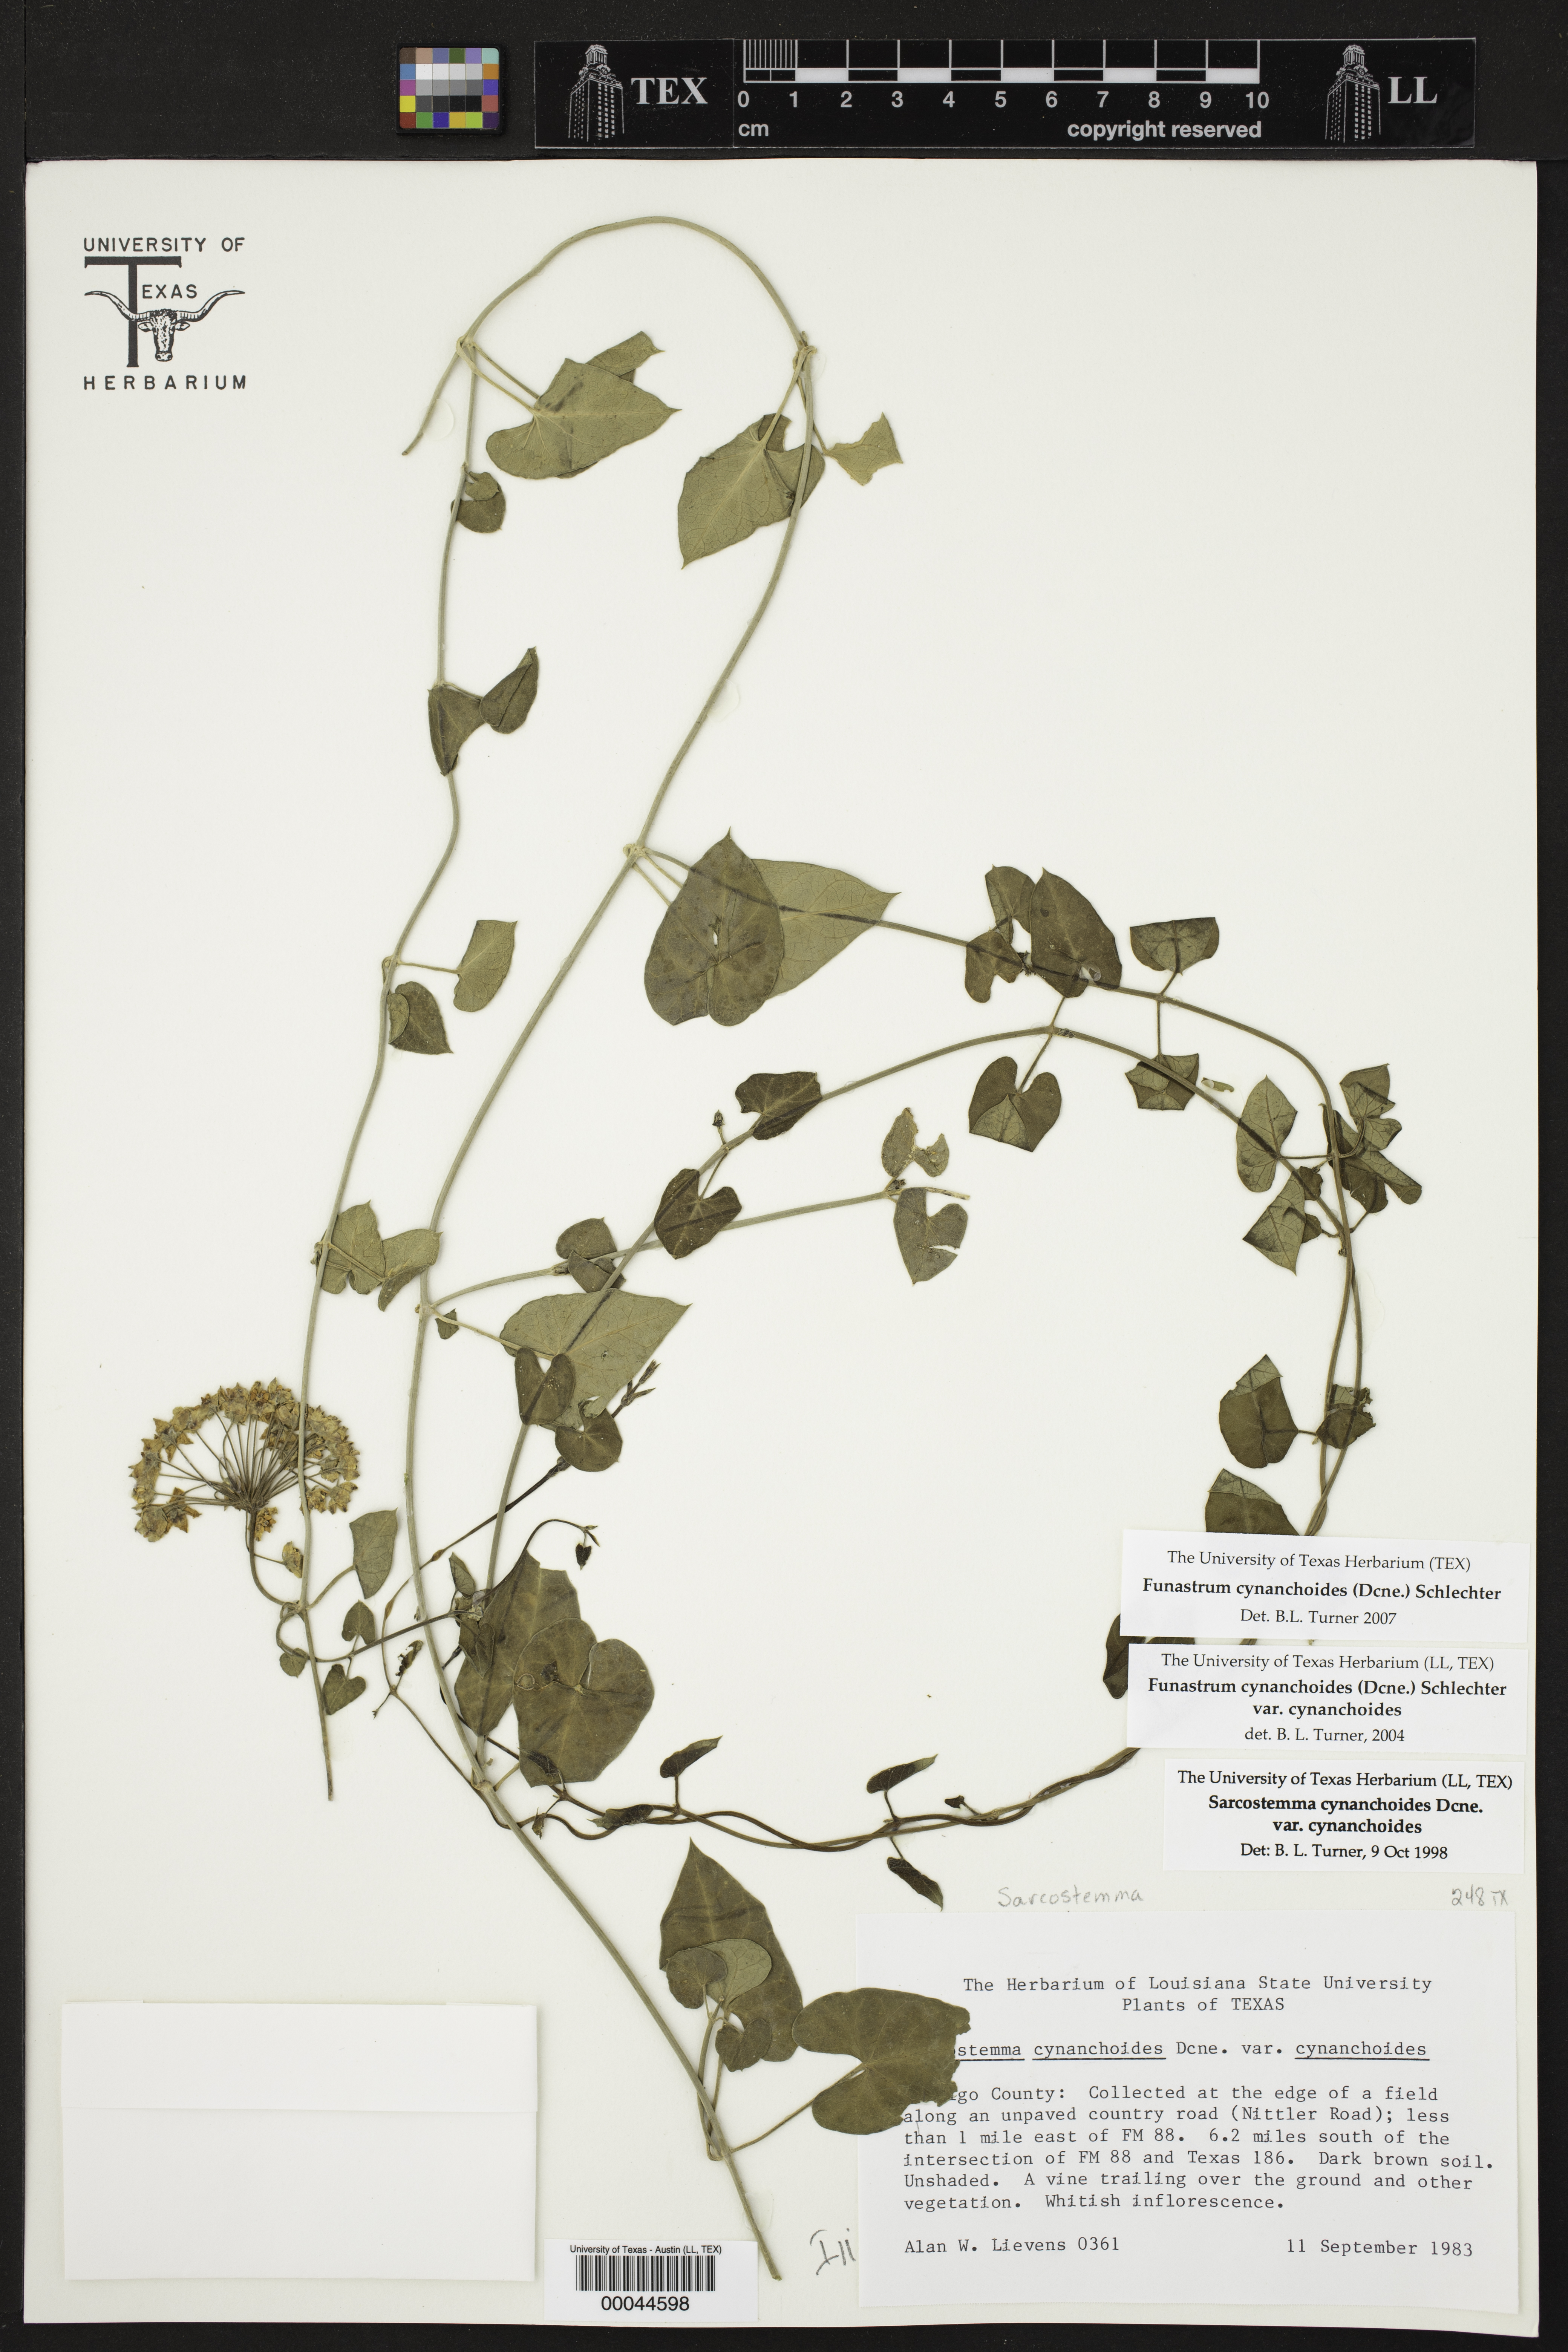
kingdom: Plantae
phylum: Tracheophyta
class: Magnoliopsida
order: Gentianales
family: Apocynaceae
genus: Funastrum
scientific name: Funastrum cynanchoides
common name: Climbing-milkweed
